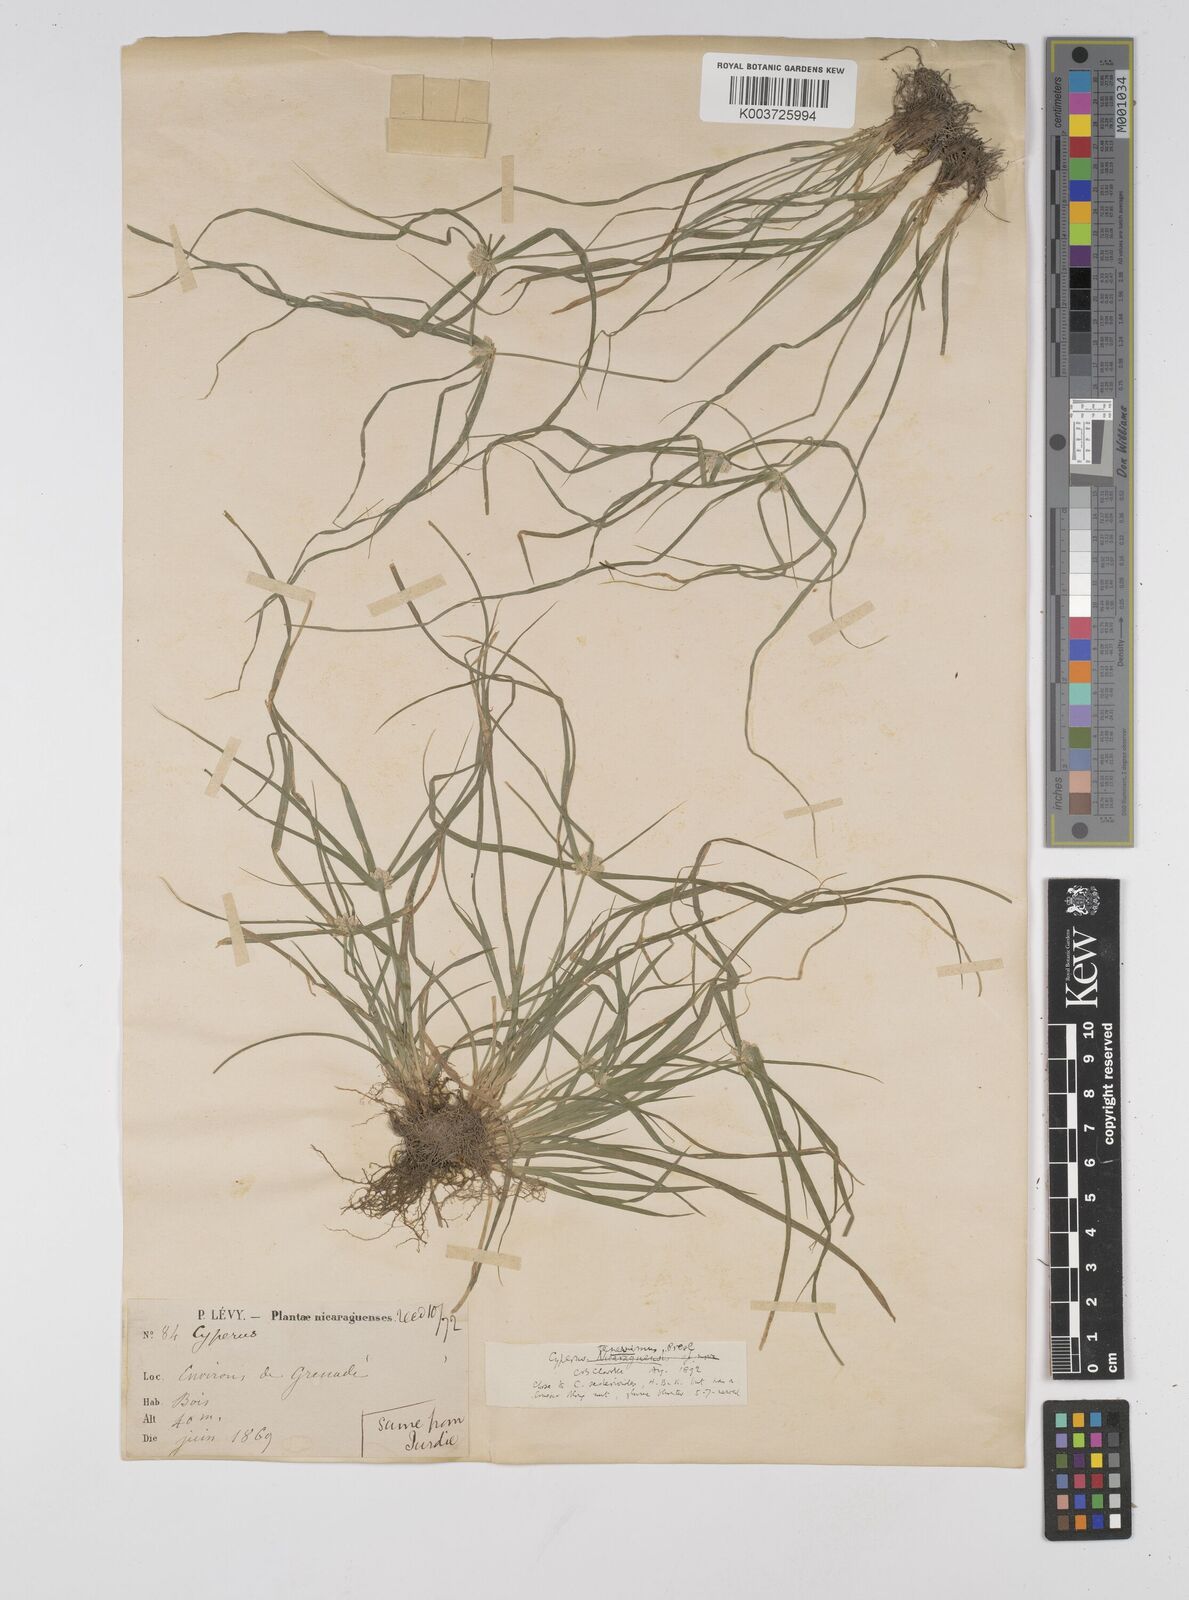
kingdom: Plantae
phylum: Tracheophyta
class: Liliopsida
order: Poales
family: Cyperaceae
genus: Cyperus
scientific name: Cyperus tenerrimus
